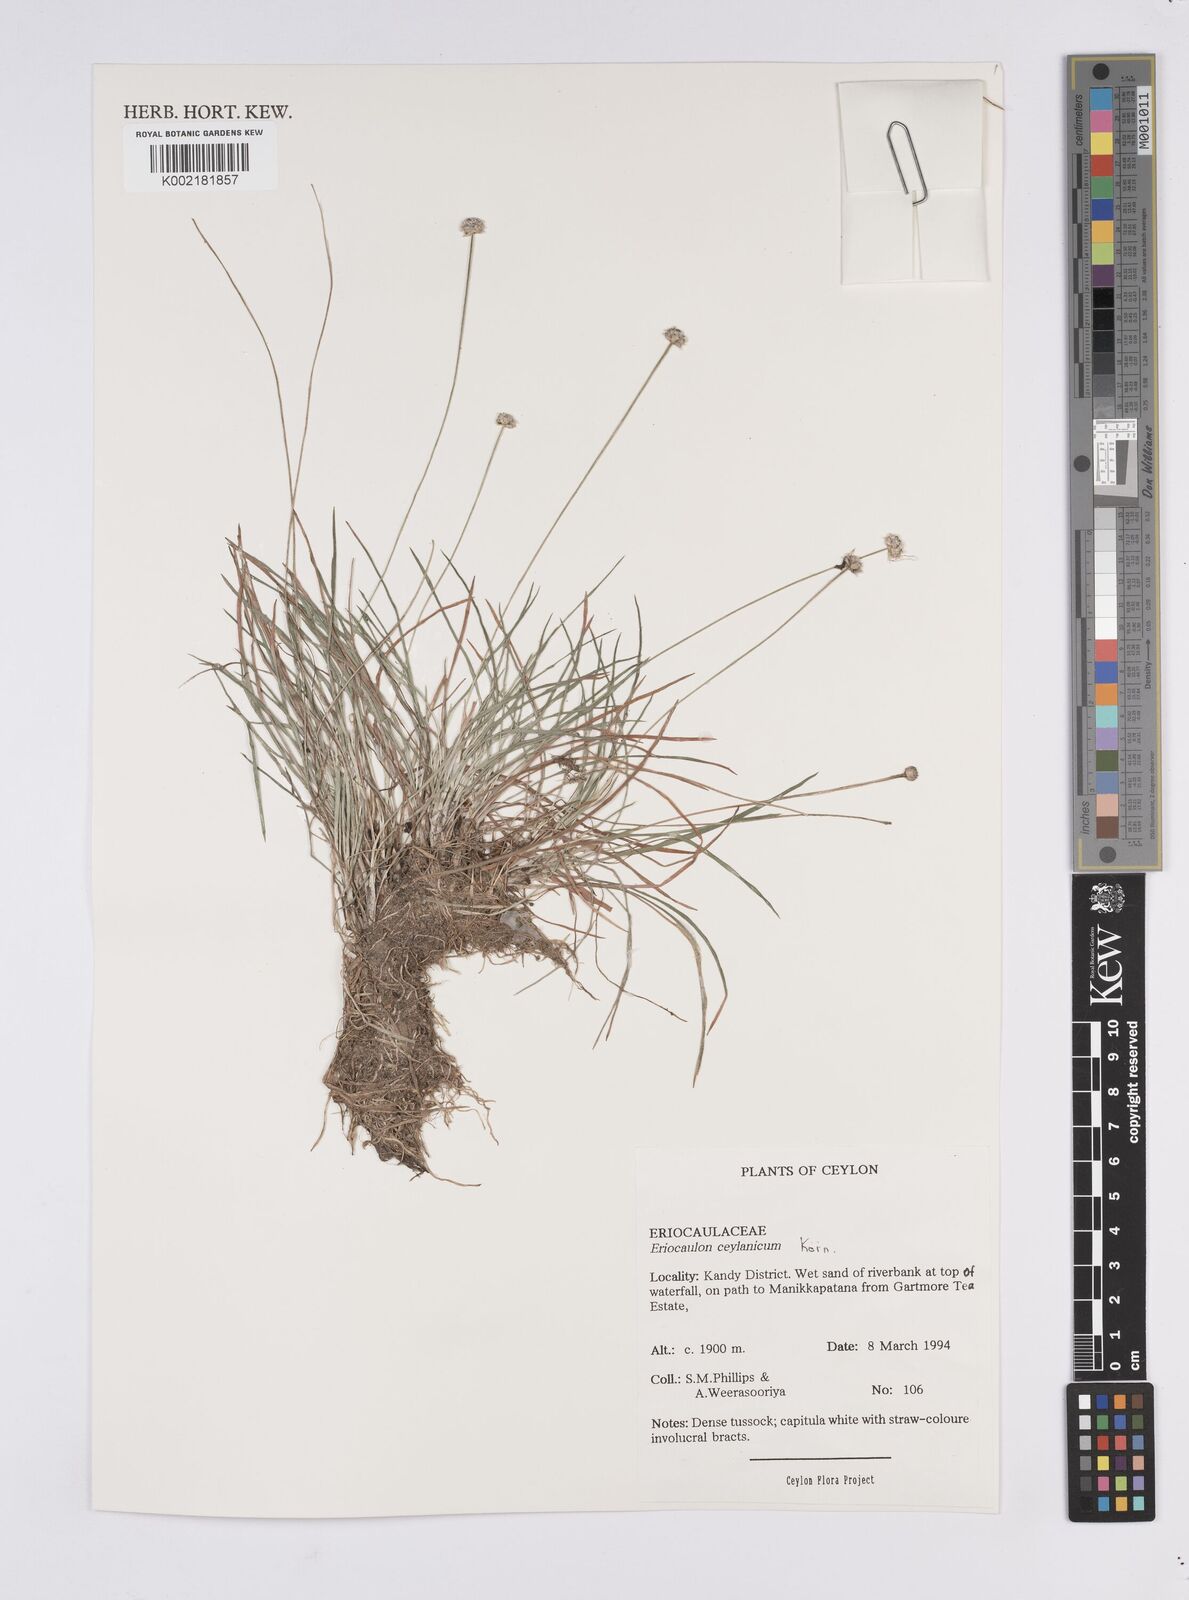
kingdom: Plantae
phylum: Tracheophyta
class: Liliopsida
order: Poales
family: Eriocaulaceae
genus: Eriocaulon
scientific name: Eriocaulon ceylanicum
